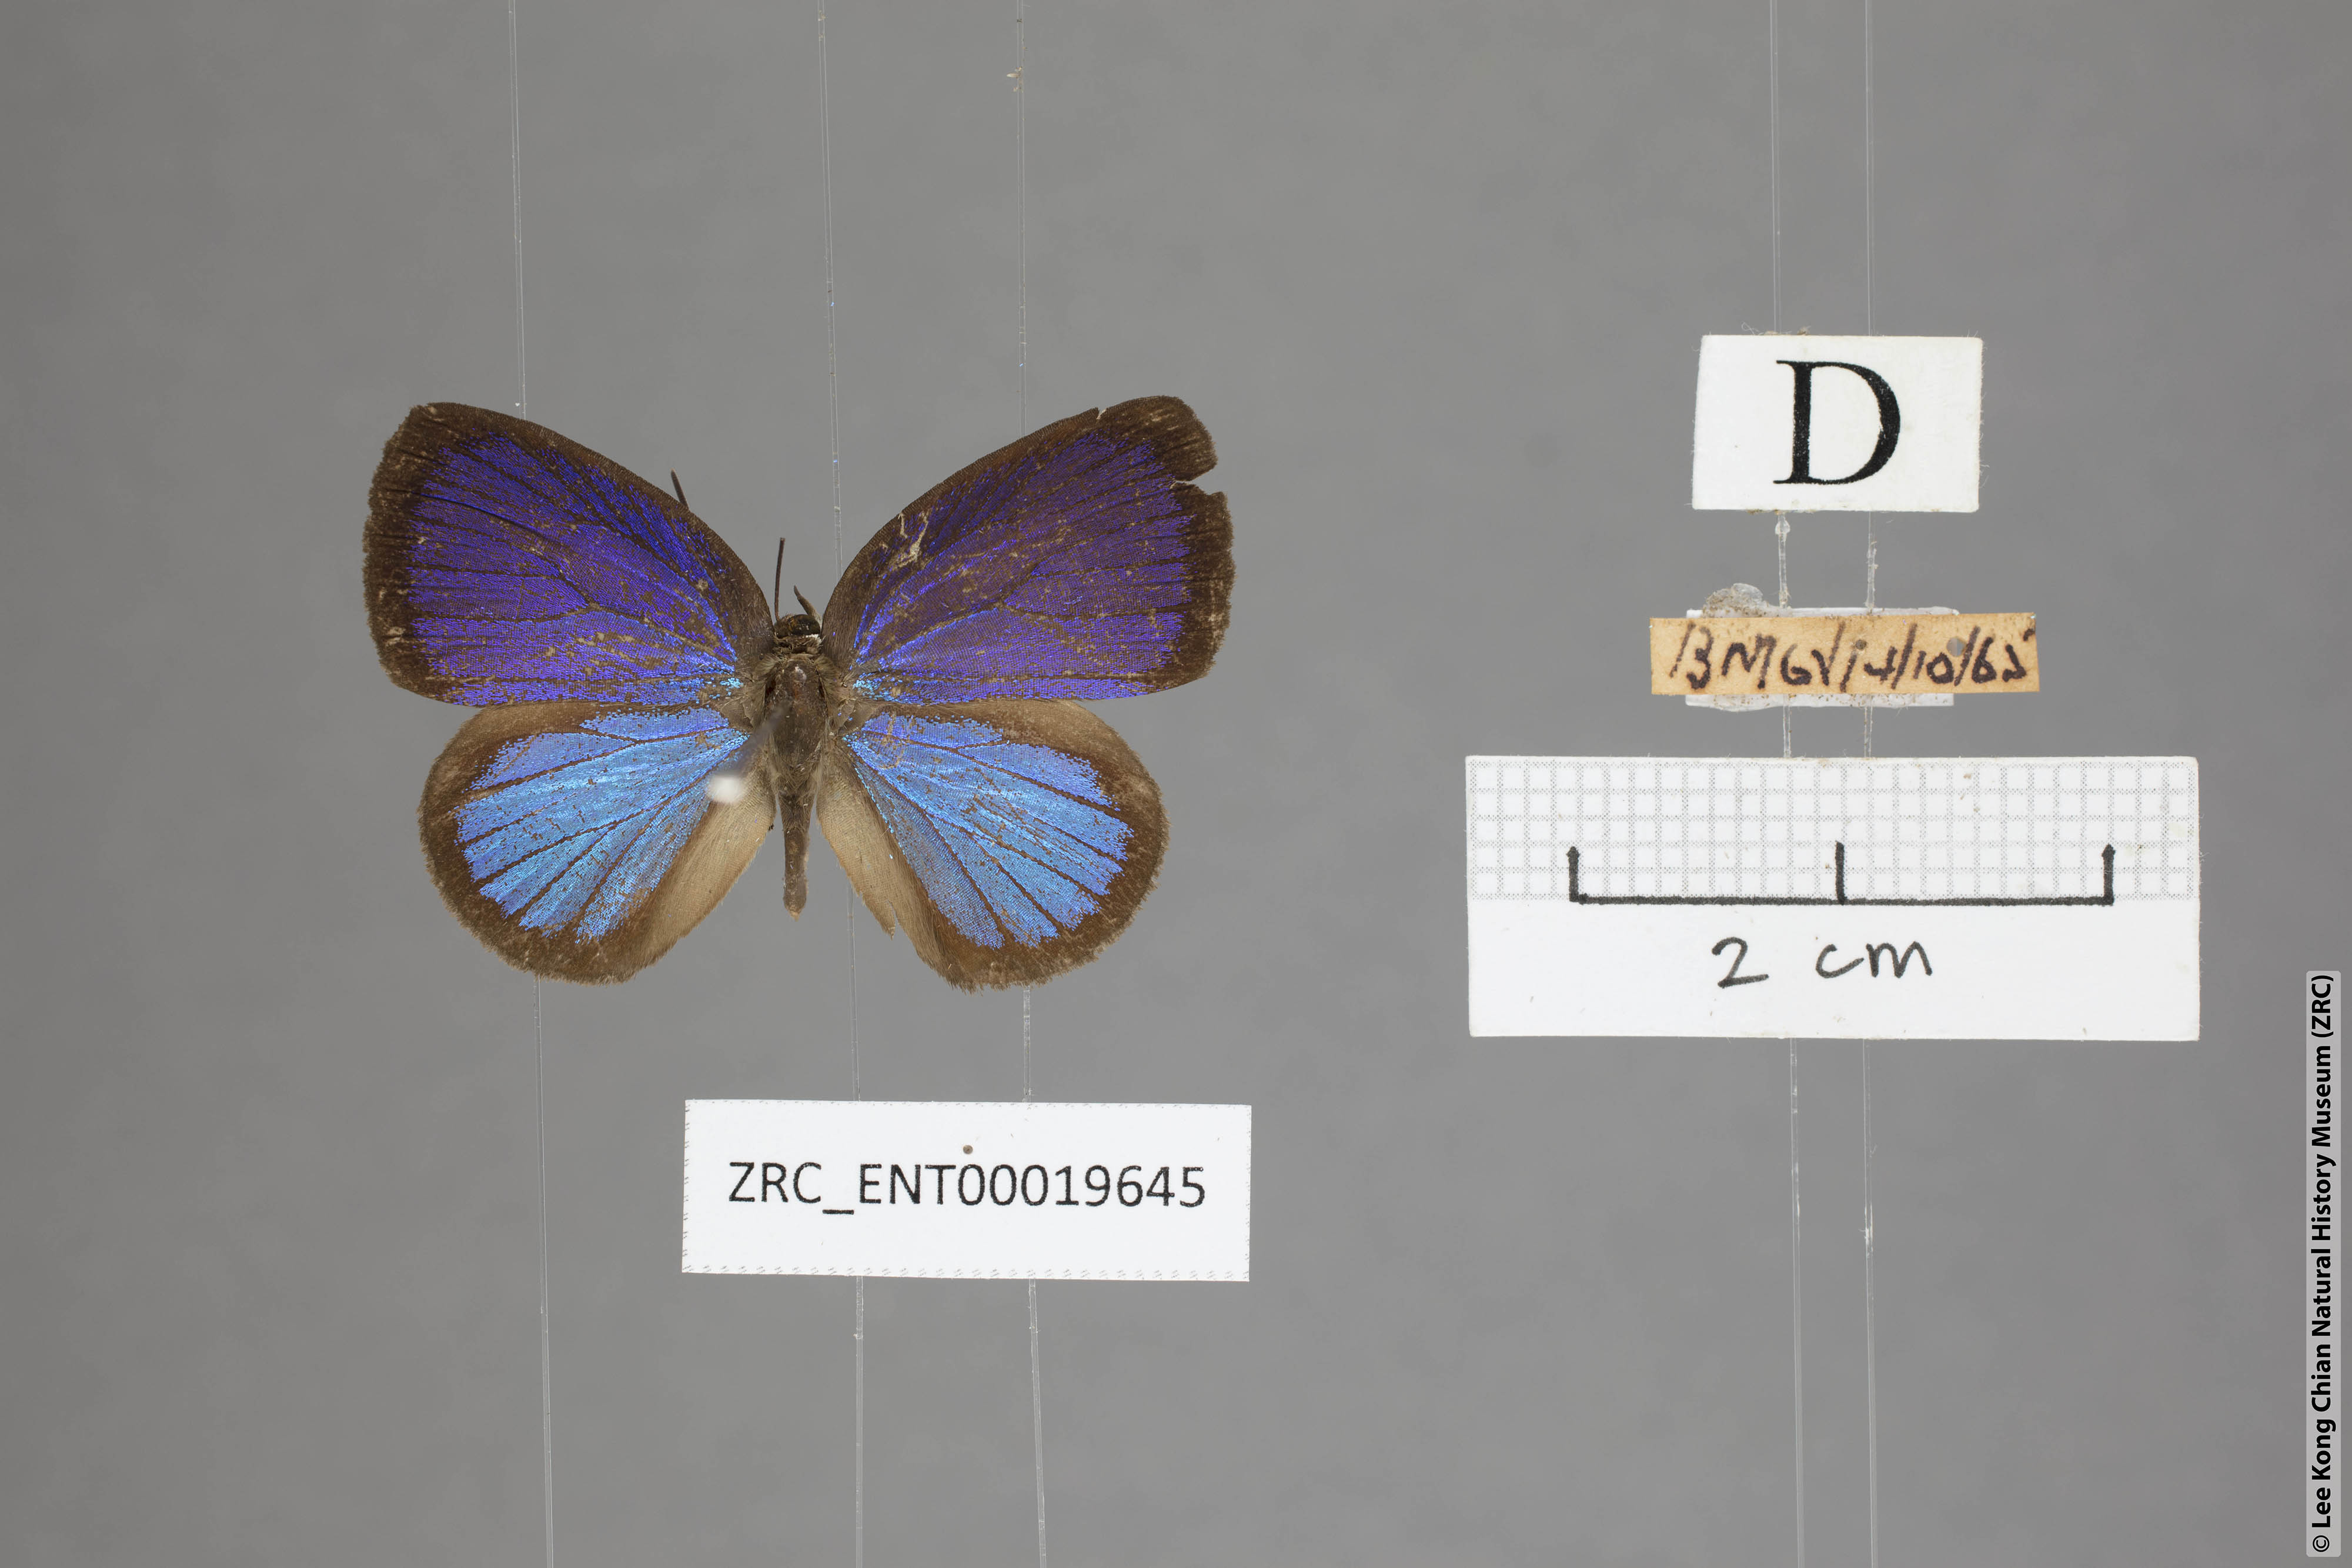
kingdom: Animalia
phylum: Arthropoda
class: Insecta
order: Lepidoptera
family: Lycaenidae
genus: Arhopala
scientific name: Arhopala metamuta
